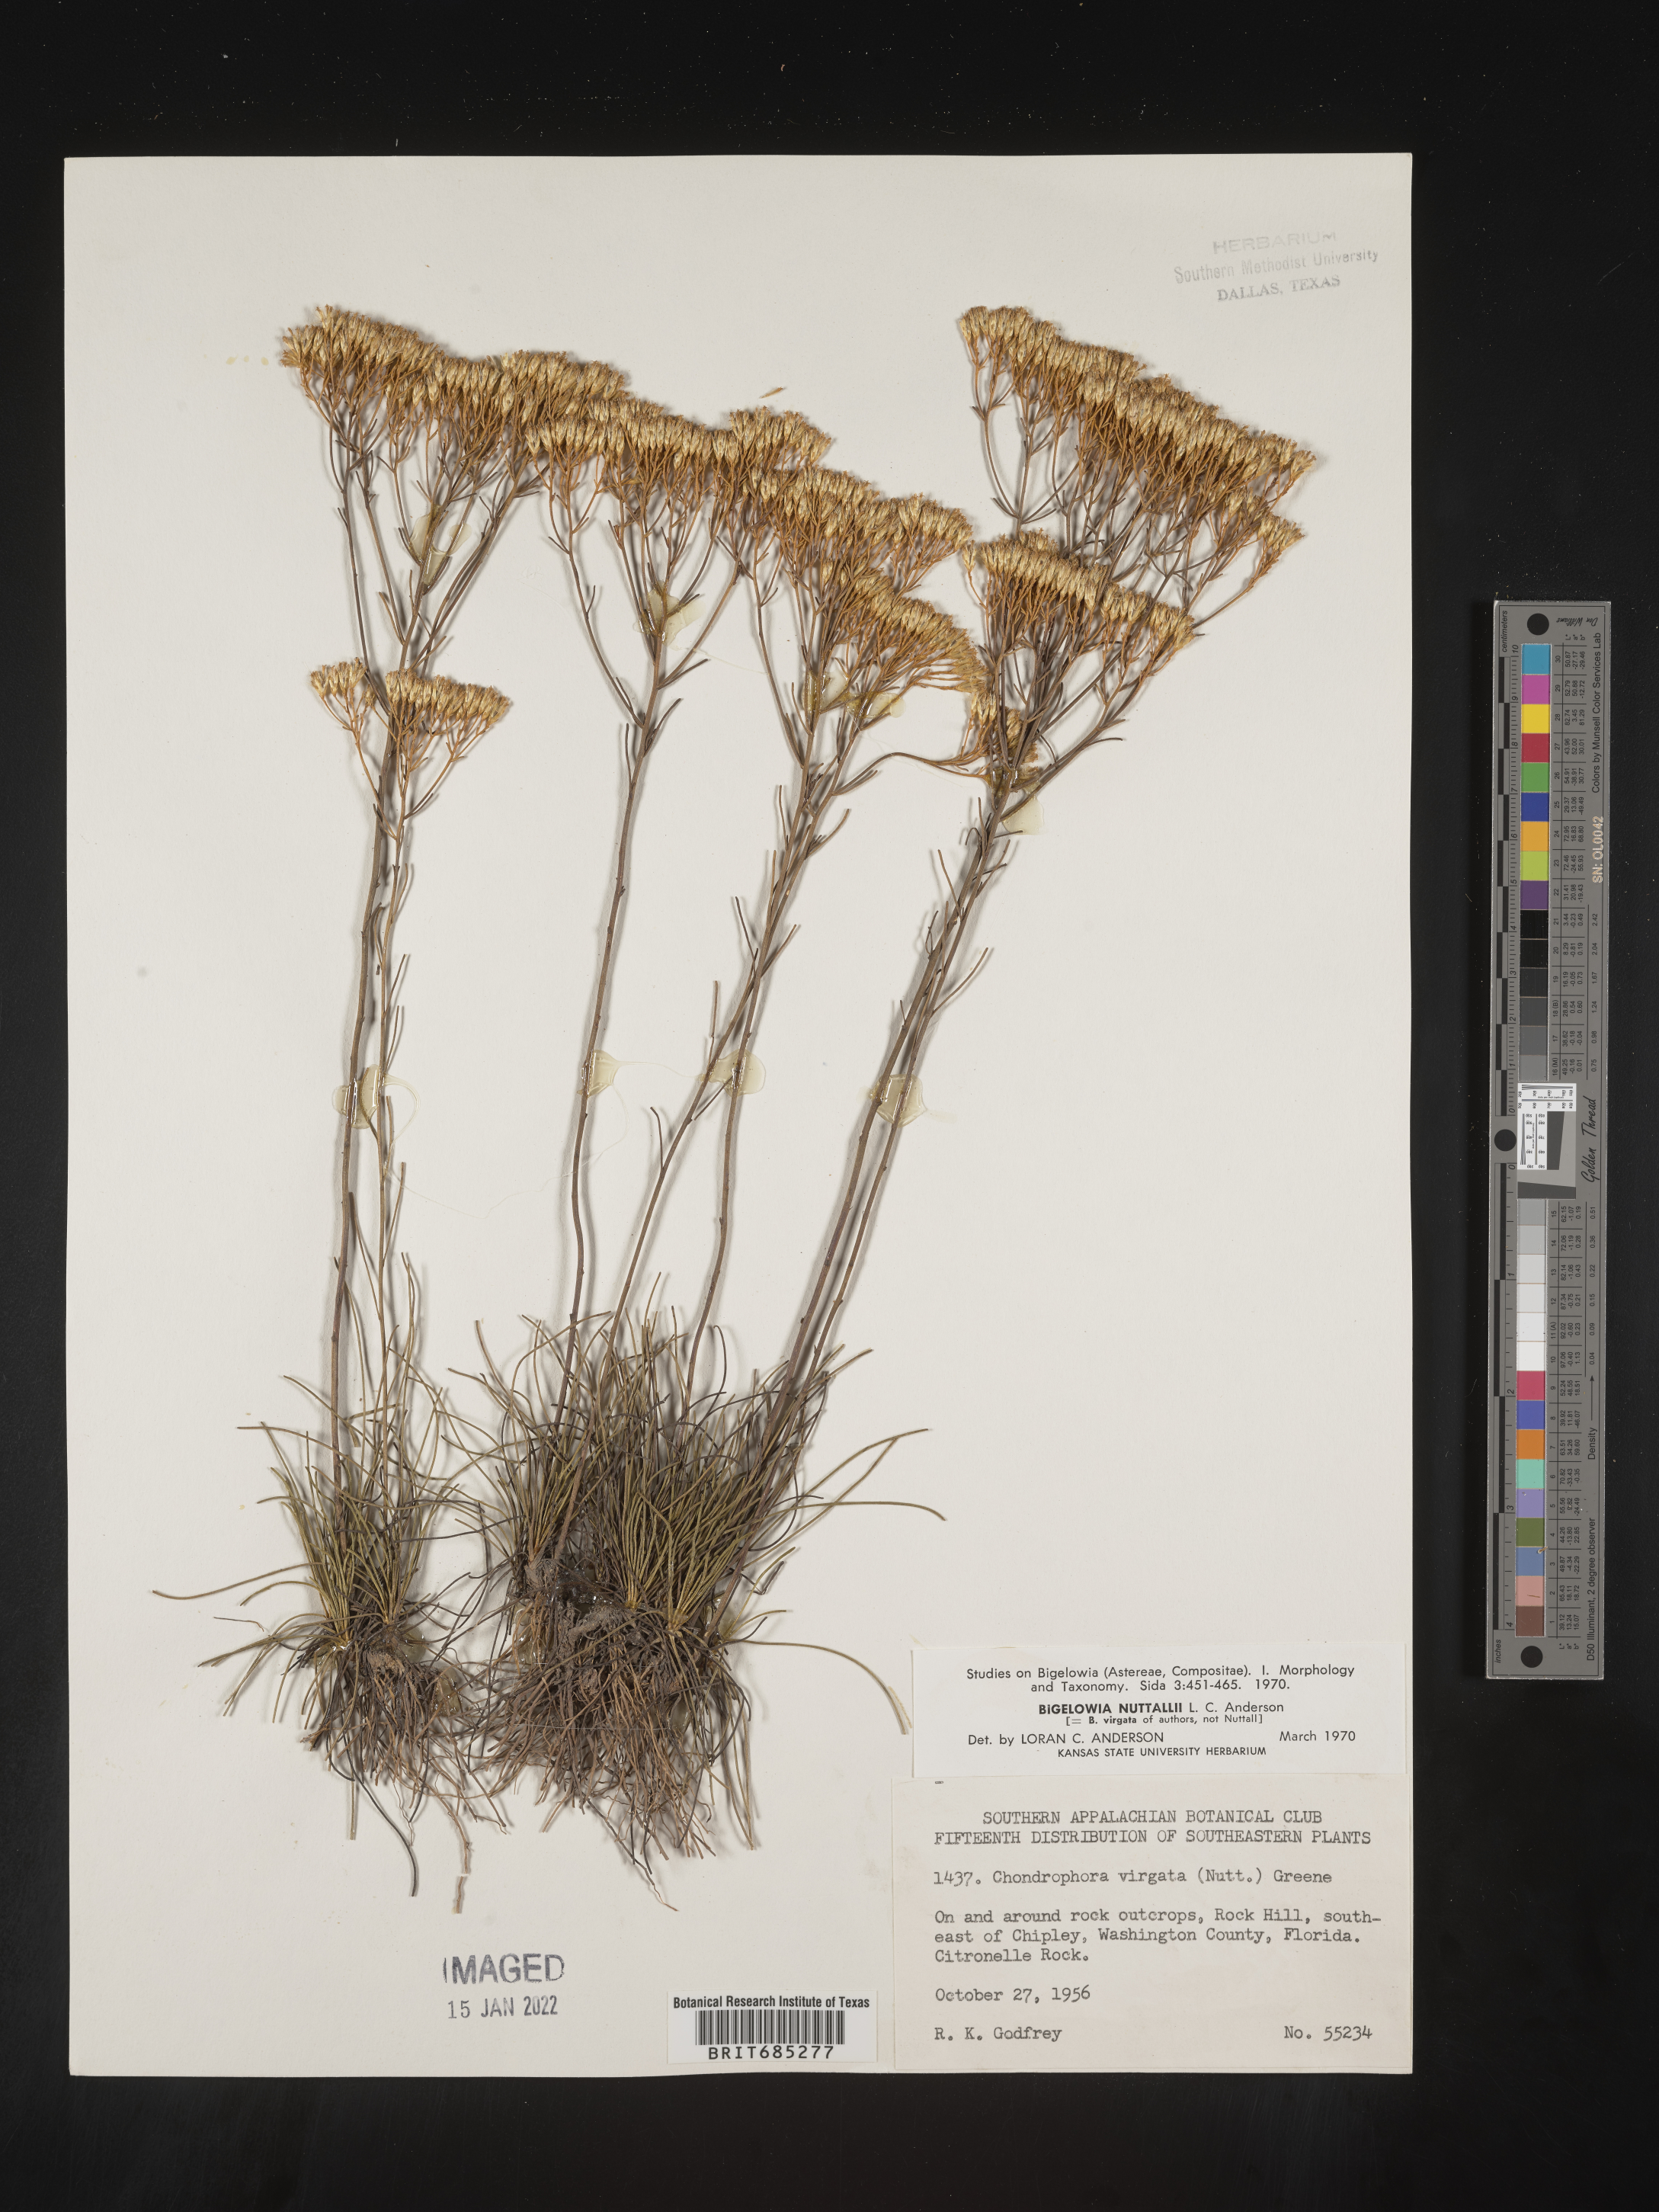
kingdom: Plantae
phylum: Tracheophyta
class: Magnoliopsida
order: Asterales
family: Asteraceae
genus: Bigelowia
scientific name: Bigelowia nudata
